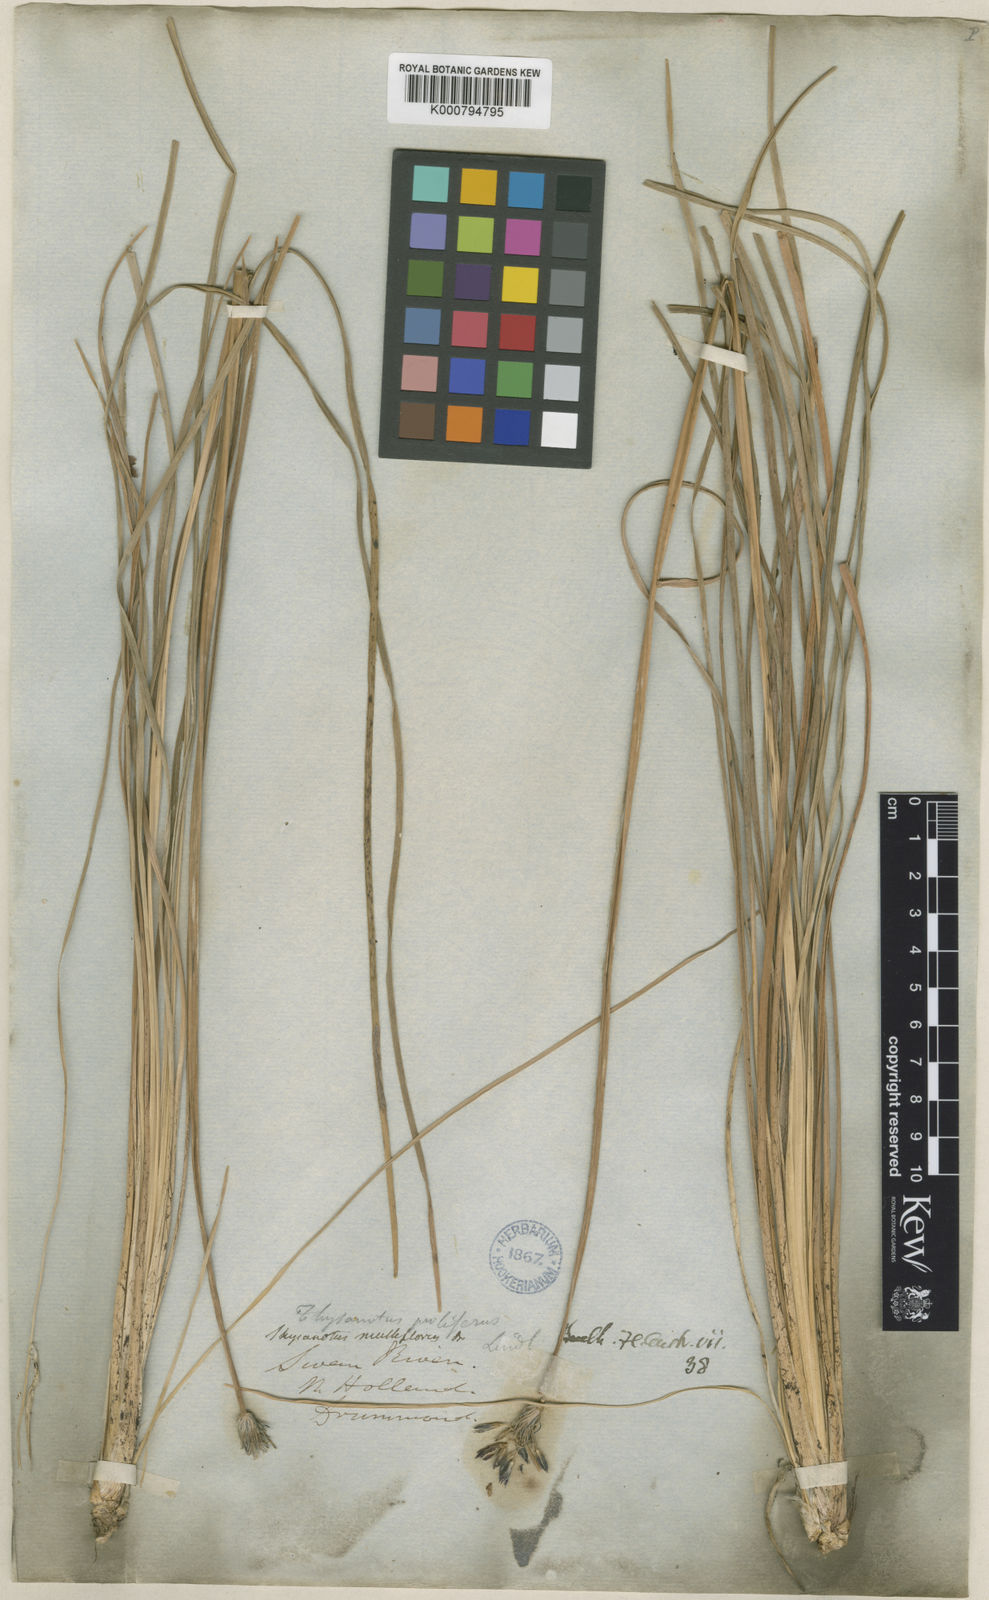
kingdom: Plantae
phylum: Tracheophyta
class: Liliopsida
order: Asparagales
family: Asparagaceae
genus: Thysanotus
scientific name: Thysanotus multiflorus
